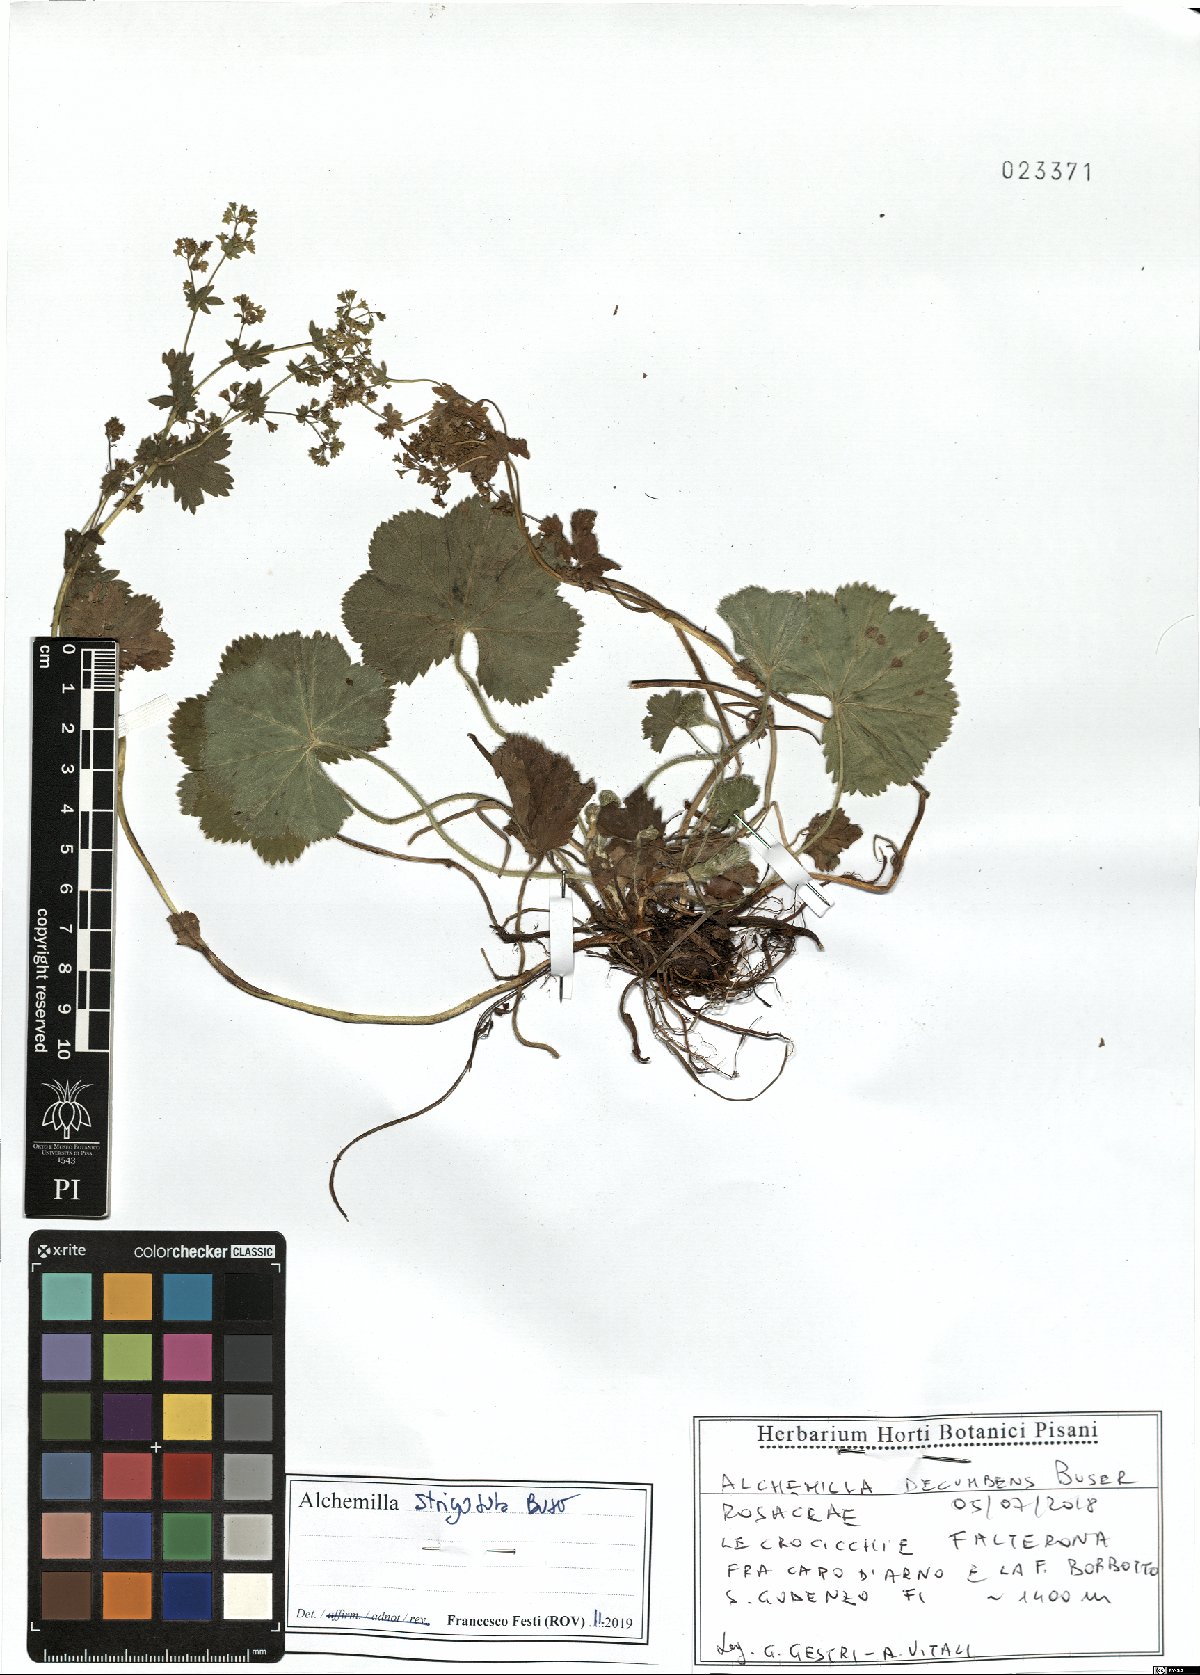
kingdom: Plantae
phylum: Tracheophyta
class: Magnoliopsida
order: Rosales
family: Rosaceae
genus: Alchemilla
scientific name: Alchemilla strigosula
